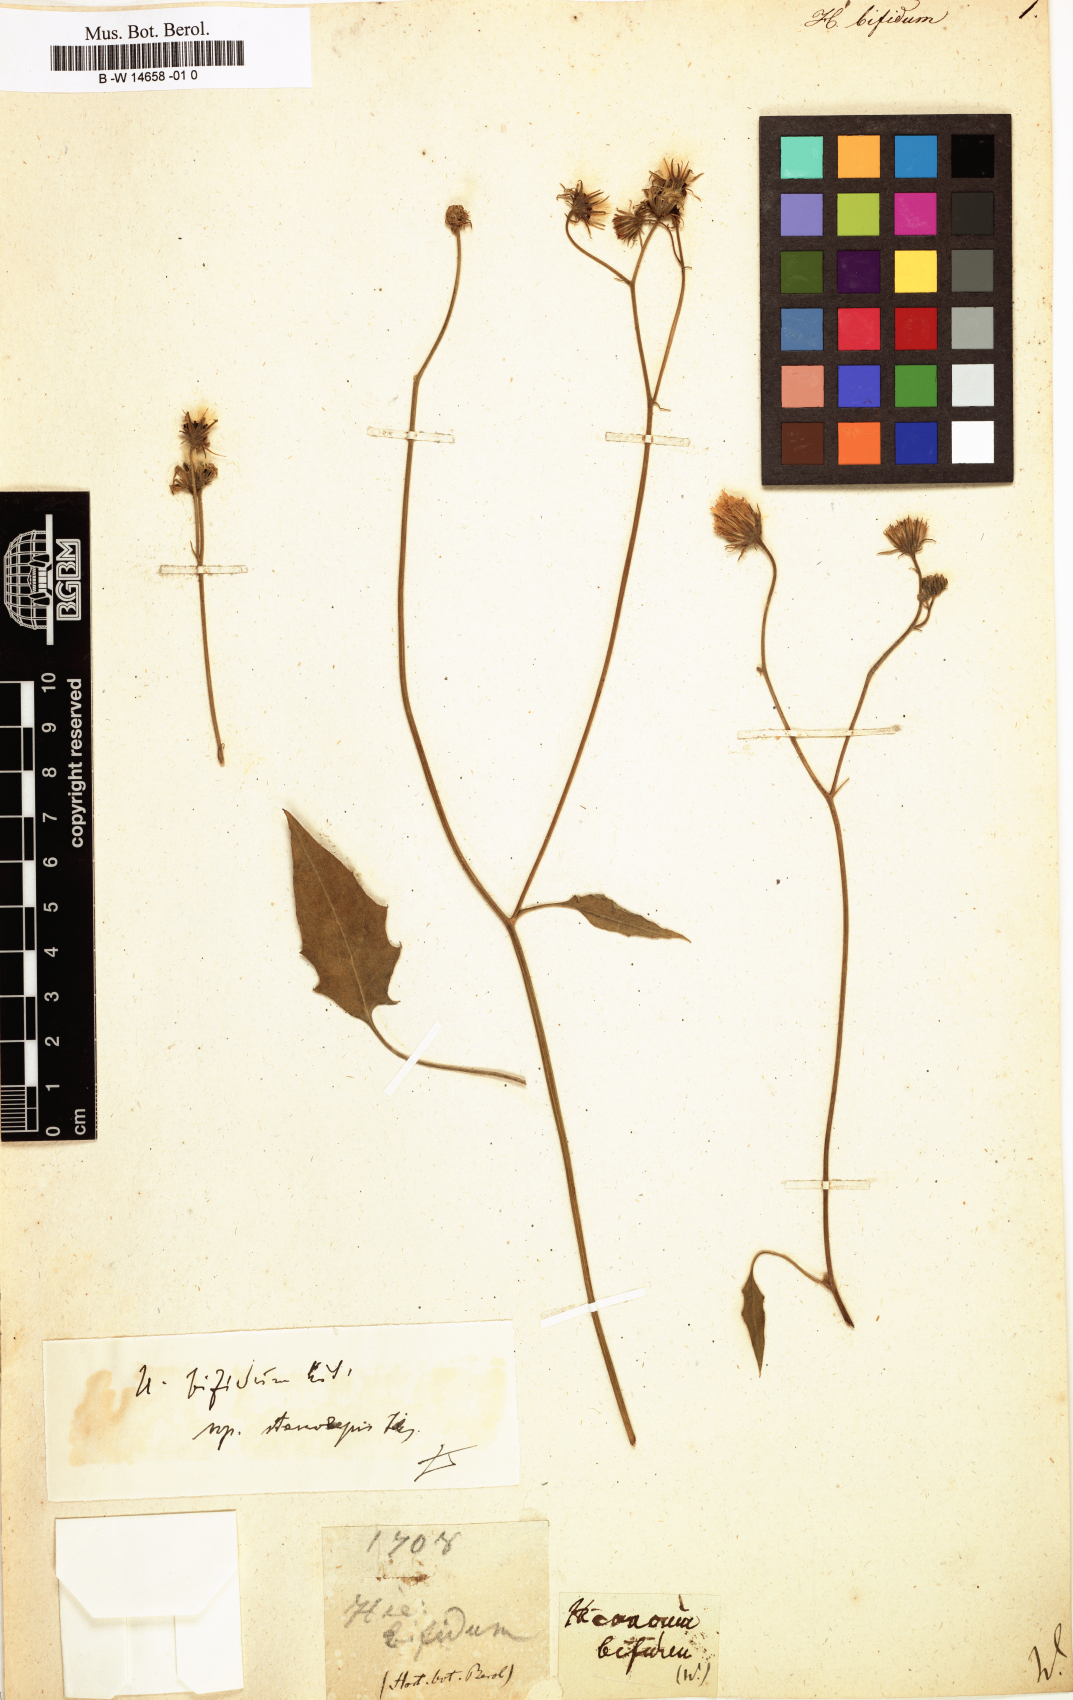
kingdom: Plantae
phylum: Tracheophyta
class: Magnoliopsida
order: Asterales
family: Asteraceae
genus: Hieracium
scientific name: Hieracium bifidum
